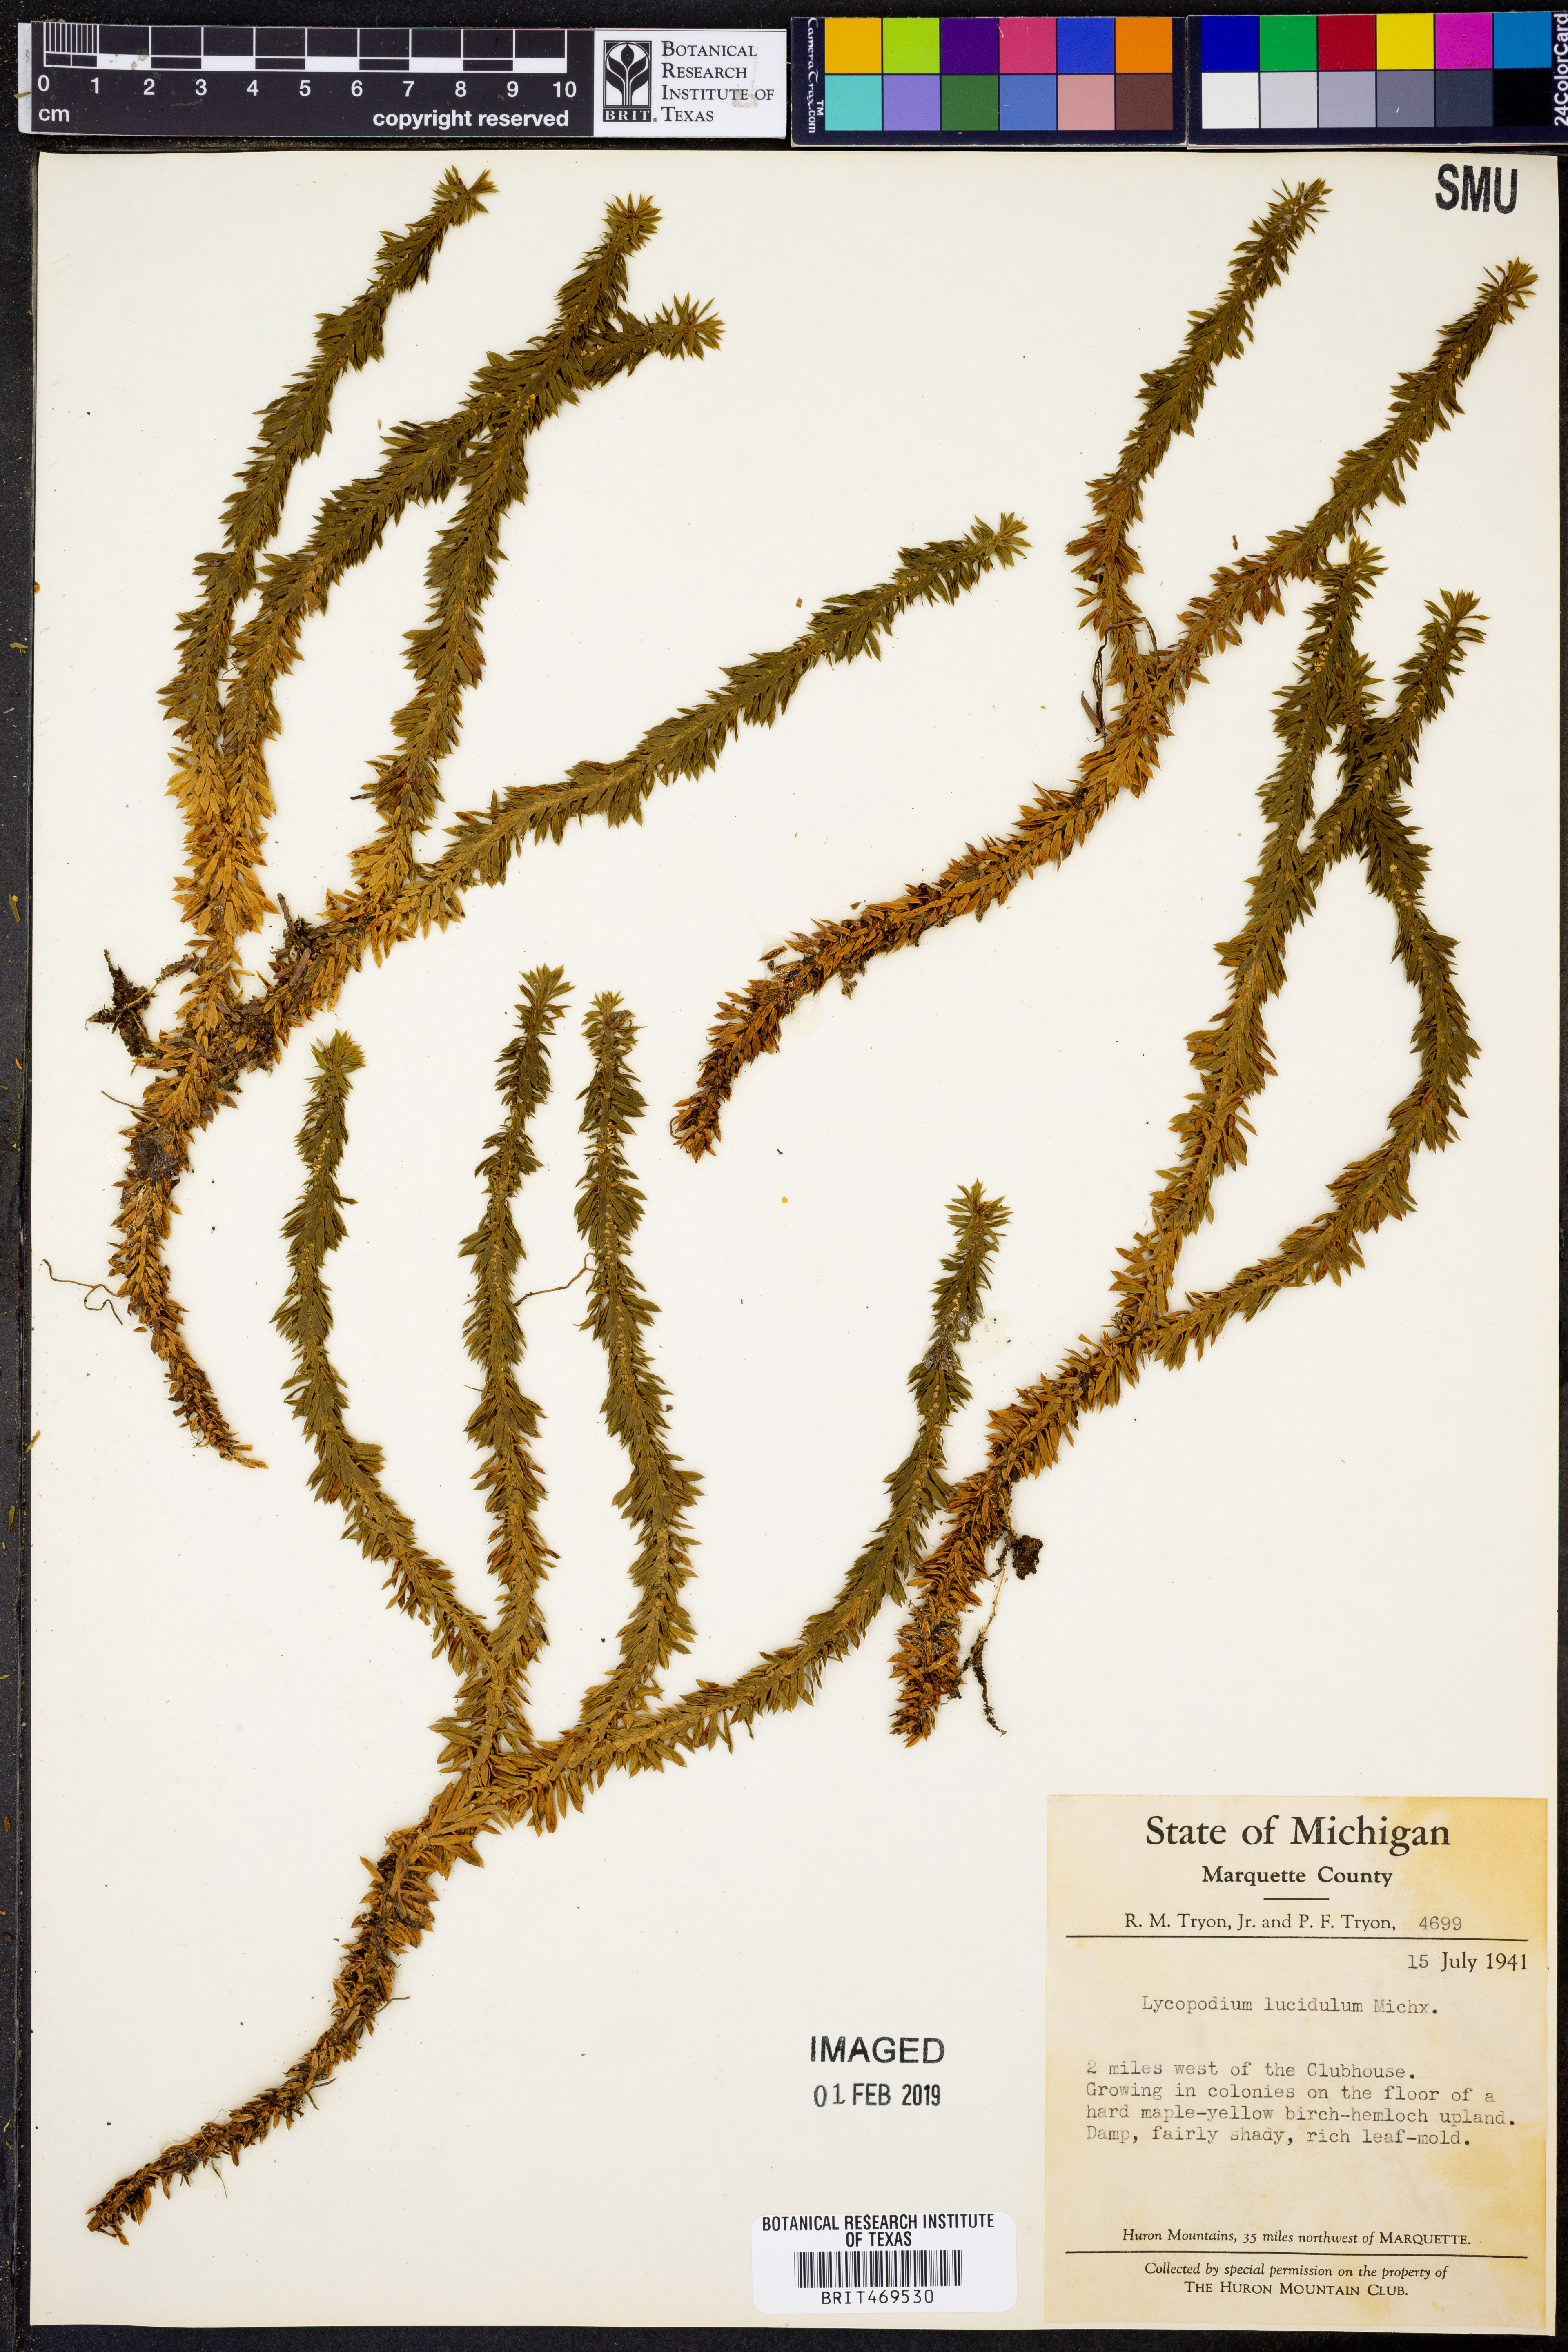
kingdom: Plantae
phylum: Tracheophyta
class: Lycopodiopsida
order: Lycopodiales
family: Lycopodiaceae
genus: Huperzia
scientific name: Huperzia lucidula
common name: Shining clubmoss
